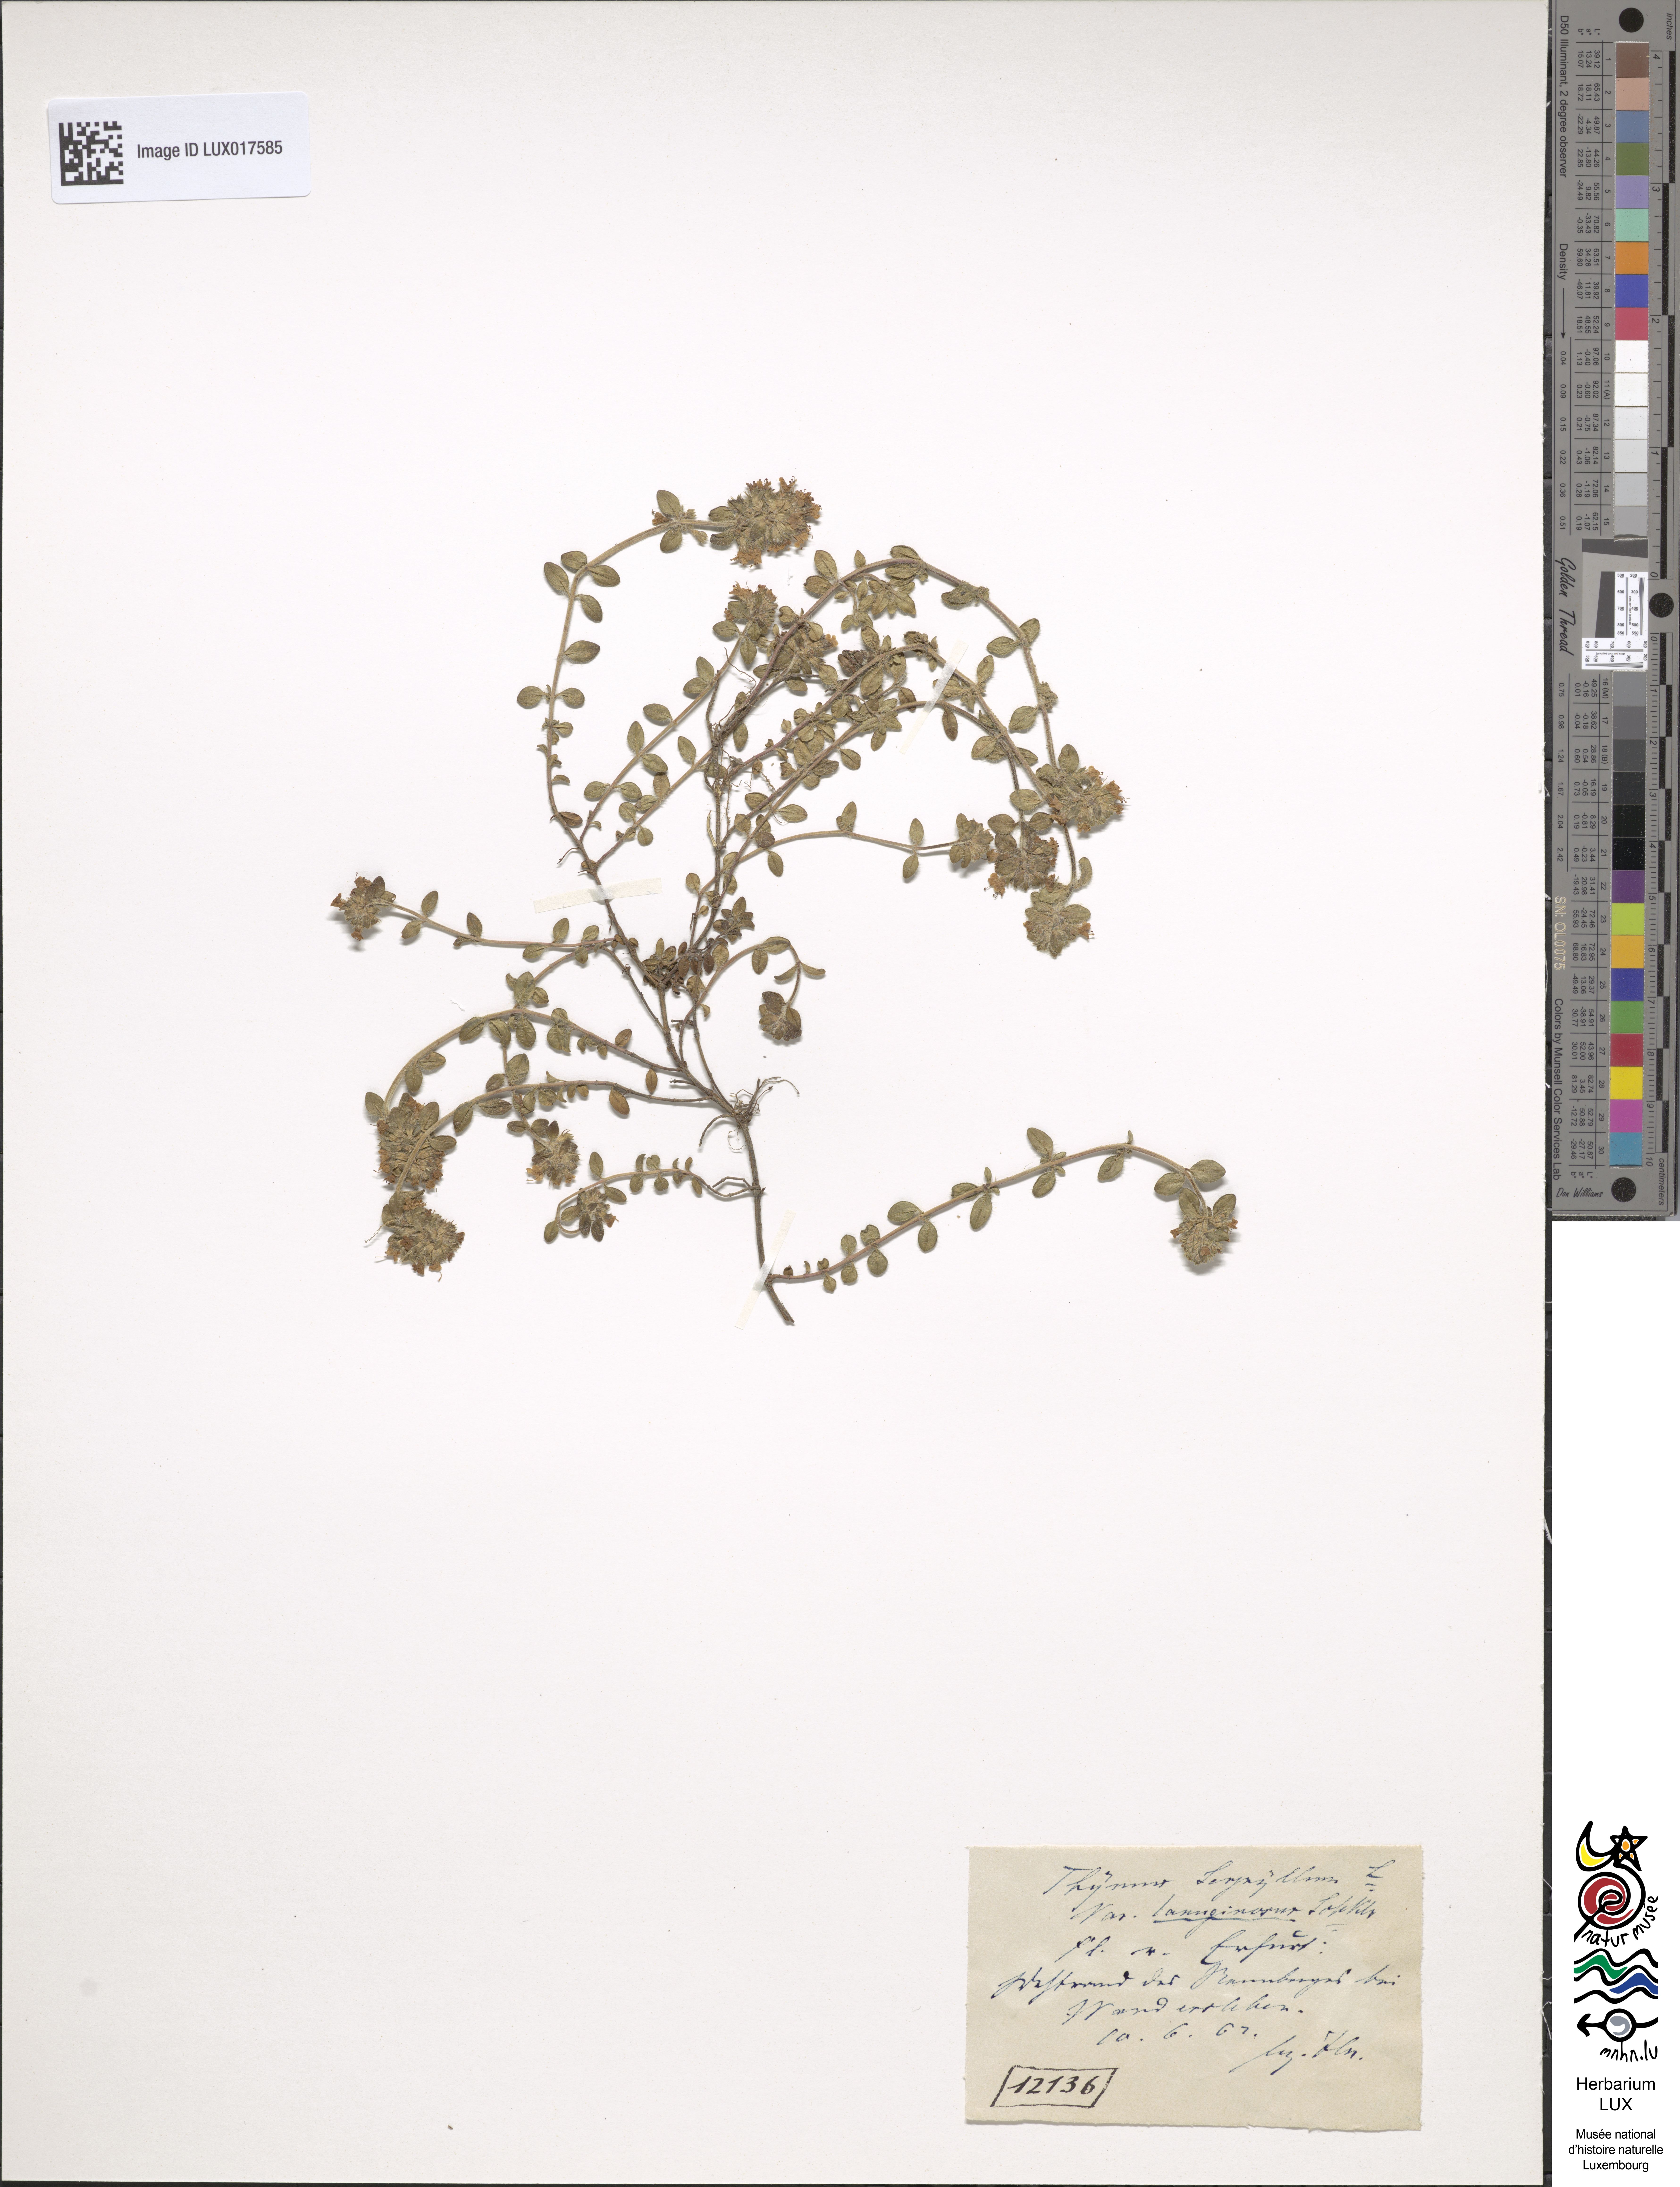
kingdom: Plantae
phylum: Tracheophyta
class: Magnoliopsida
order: Lamiales
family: Lamiaceae
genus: Thymus
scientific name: Thymus serpyllum
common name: Breckland thyme
